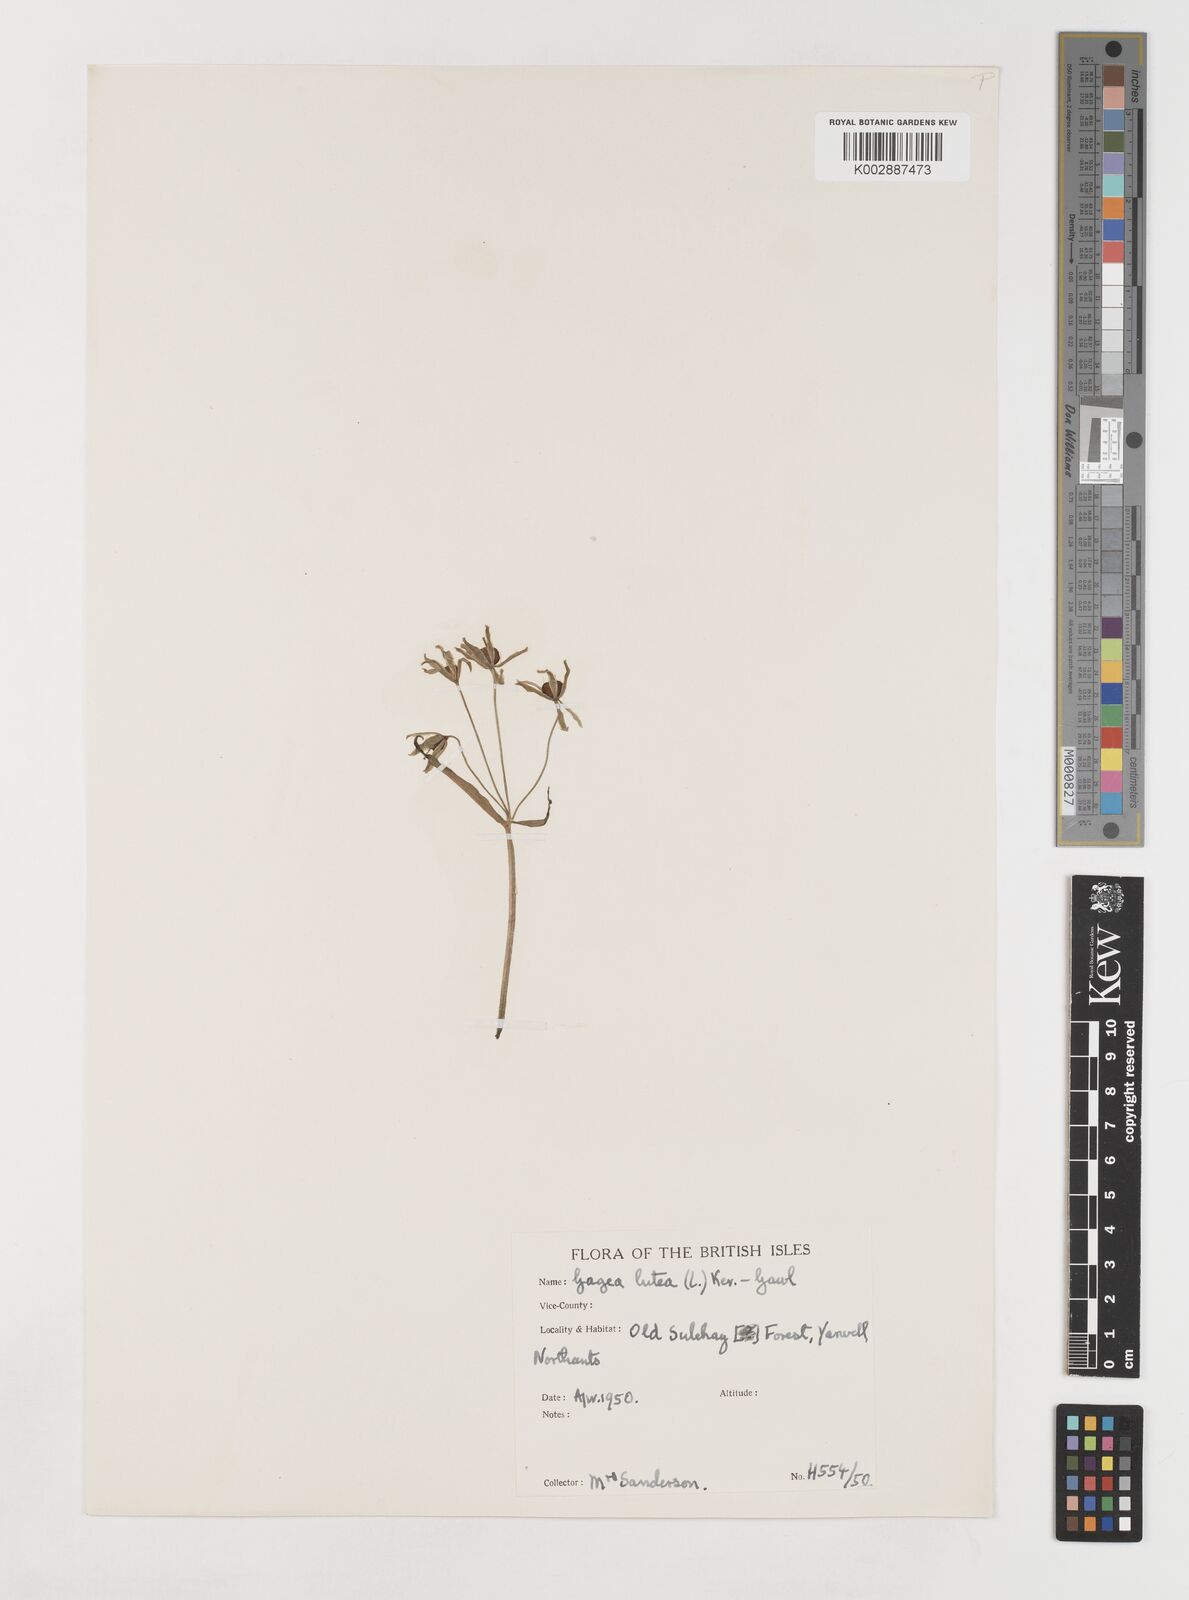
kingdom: Plantae
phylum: Tracheophyta
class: Liliopsida
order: Liliales
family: Liliaceae
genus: Gagea
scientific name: Gagea lutea
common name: Yellow star-of-bethlehem
